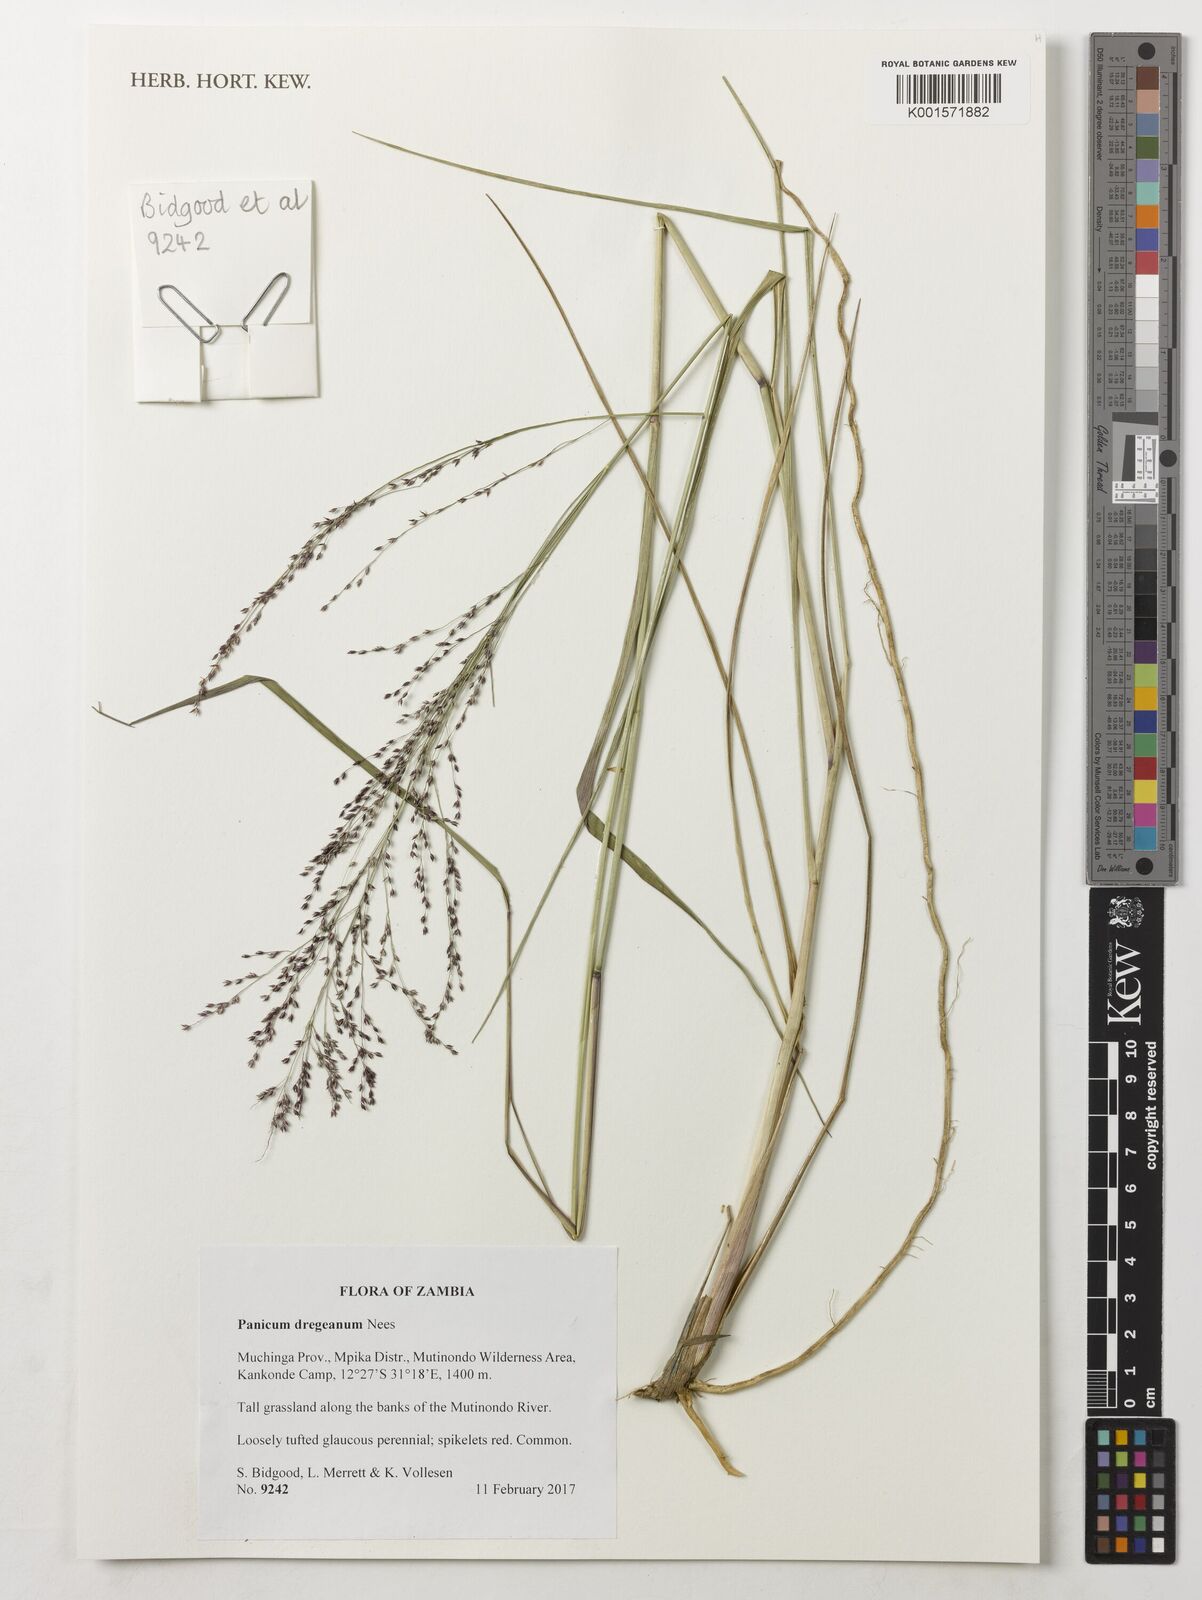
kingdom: Plantae
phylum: Tracheophyta
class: Liliopsida
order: Poales
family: Poaceae
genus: Panicum
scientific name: Panicum dregeanum
